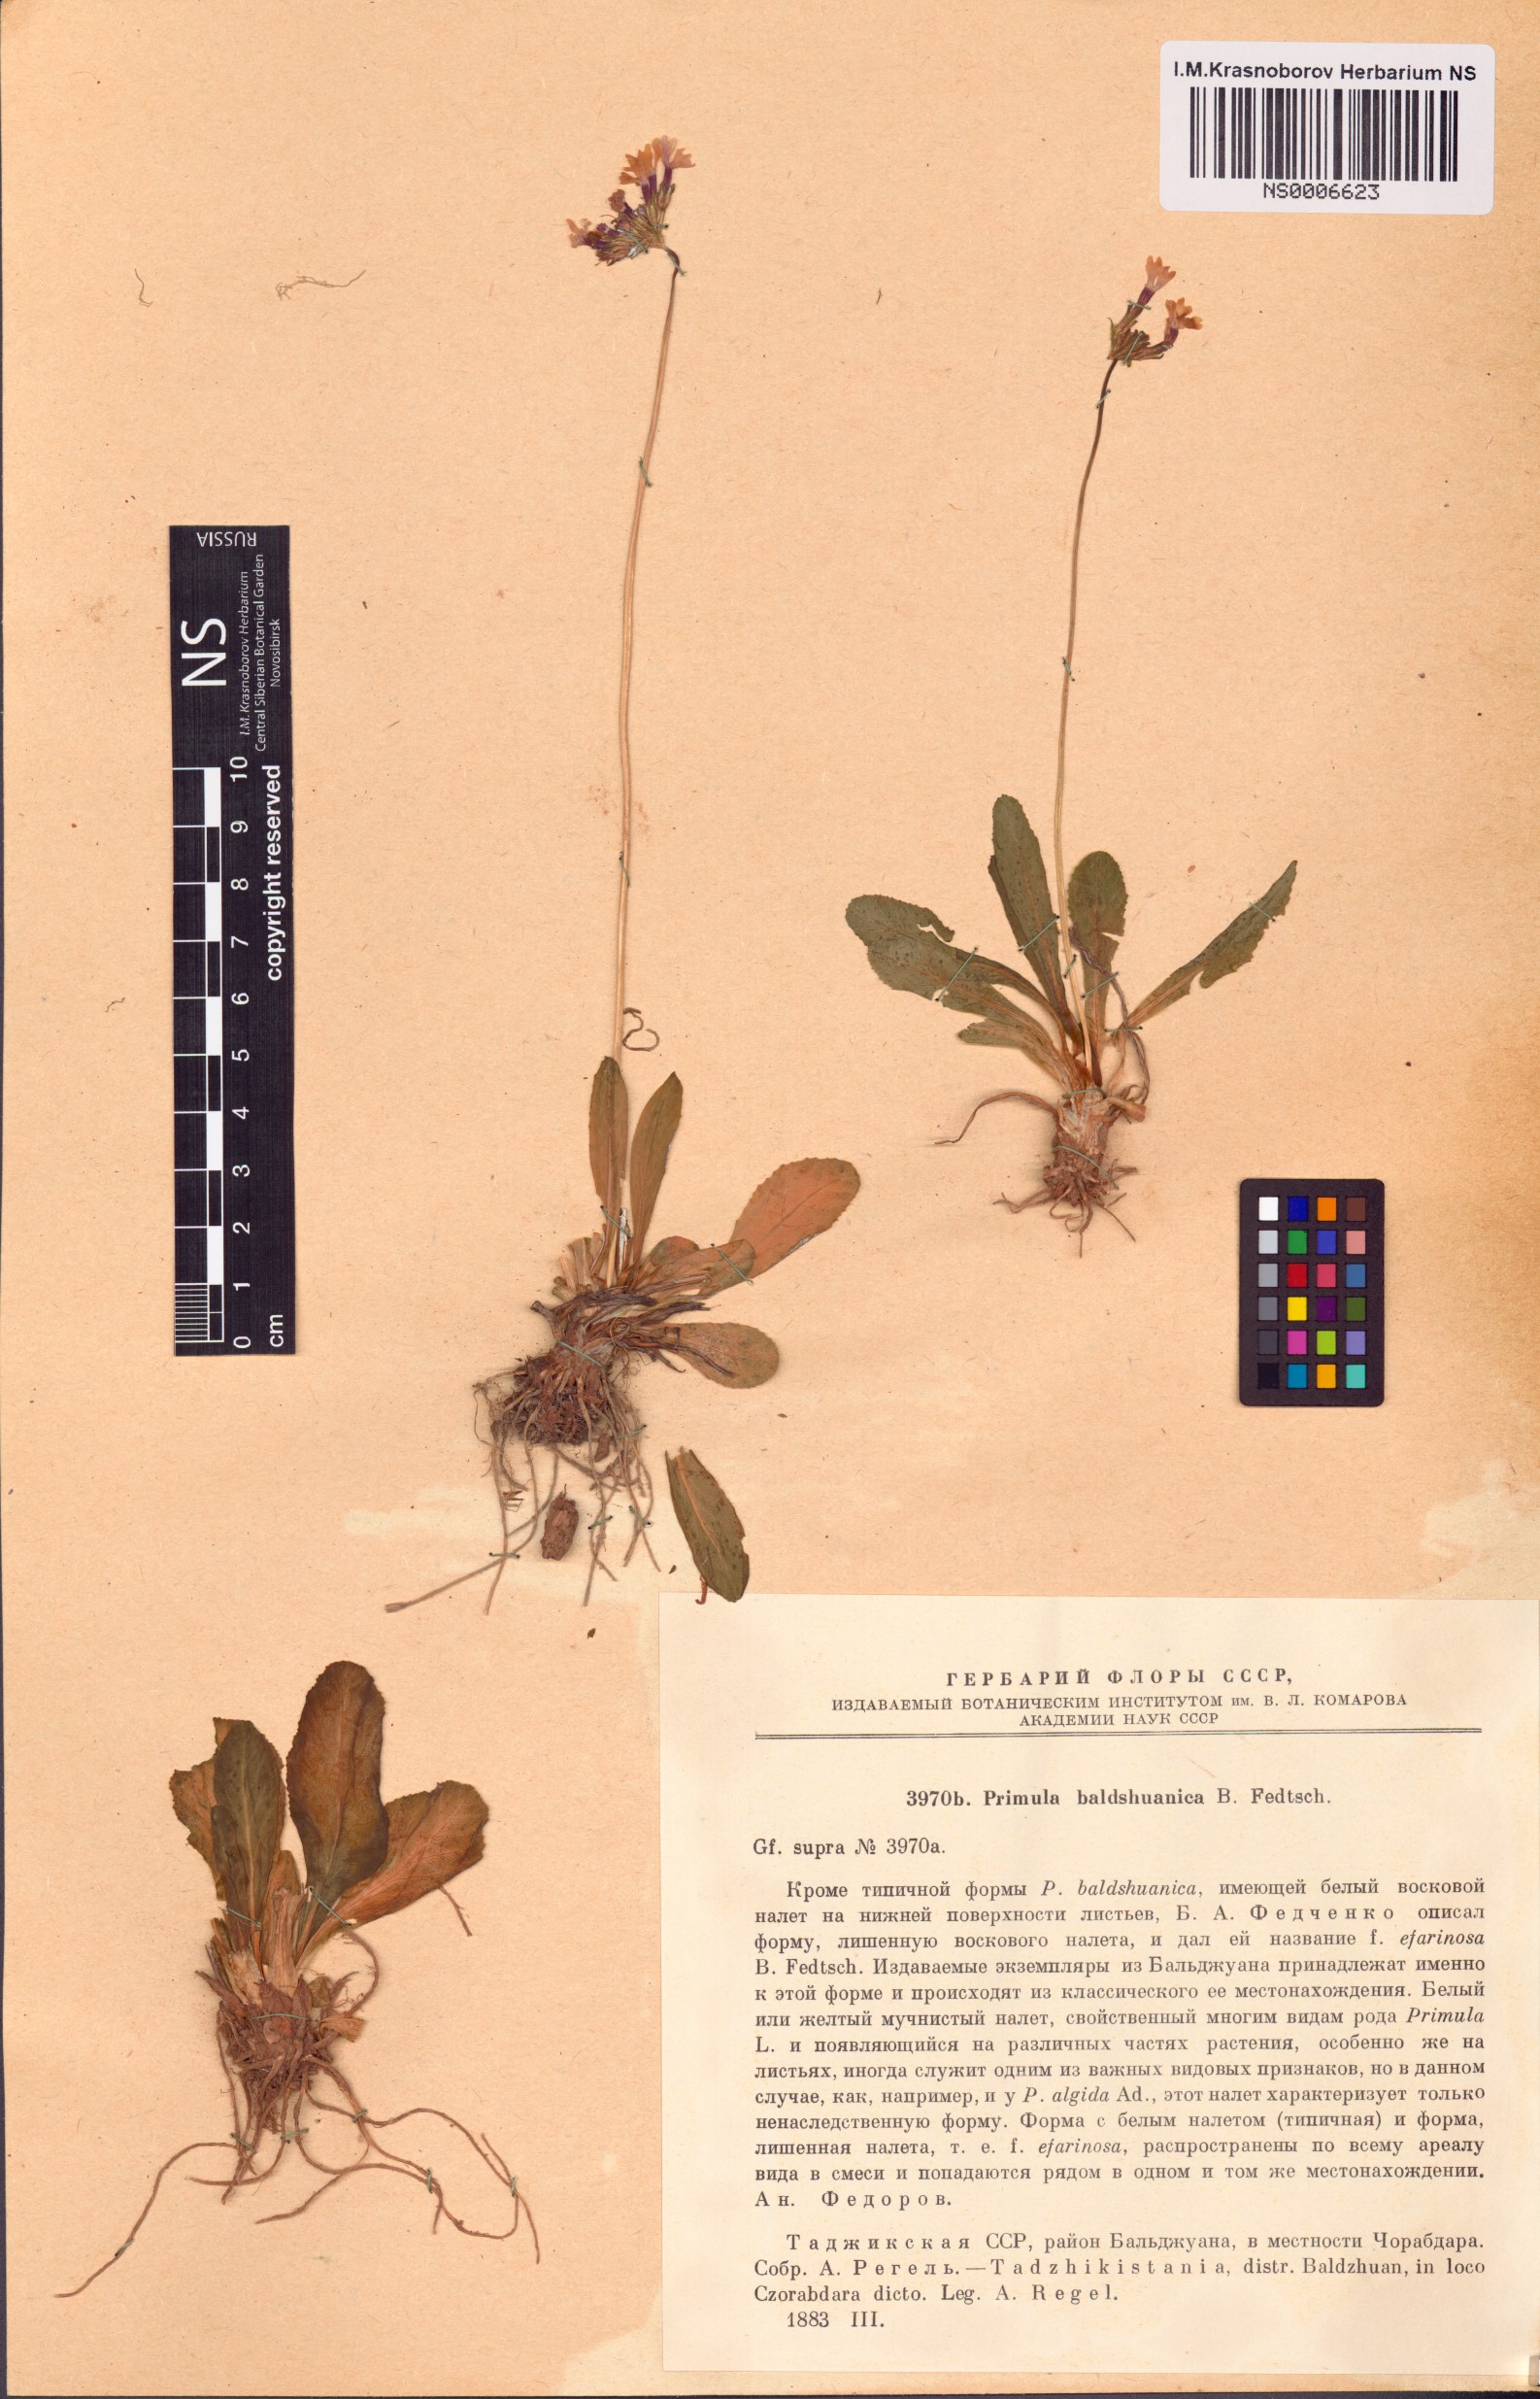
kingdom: Plantae
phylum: Tracheophyta
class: Magnoliopsida
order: Ericales
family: Primulaceae
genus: Primula
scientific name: Primula baldshuanica
